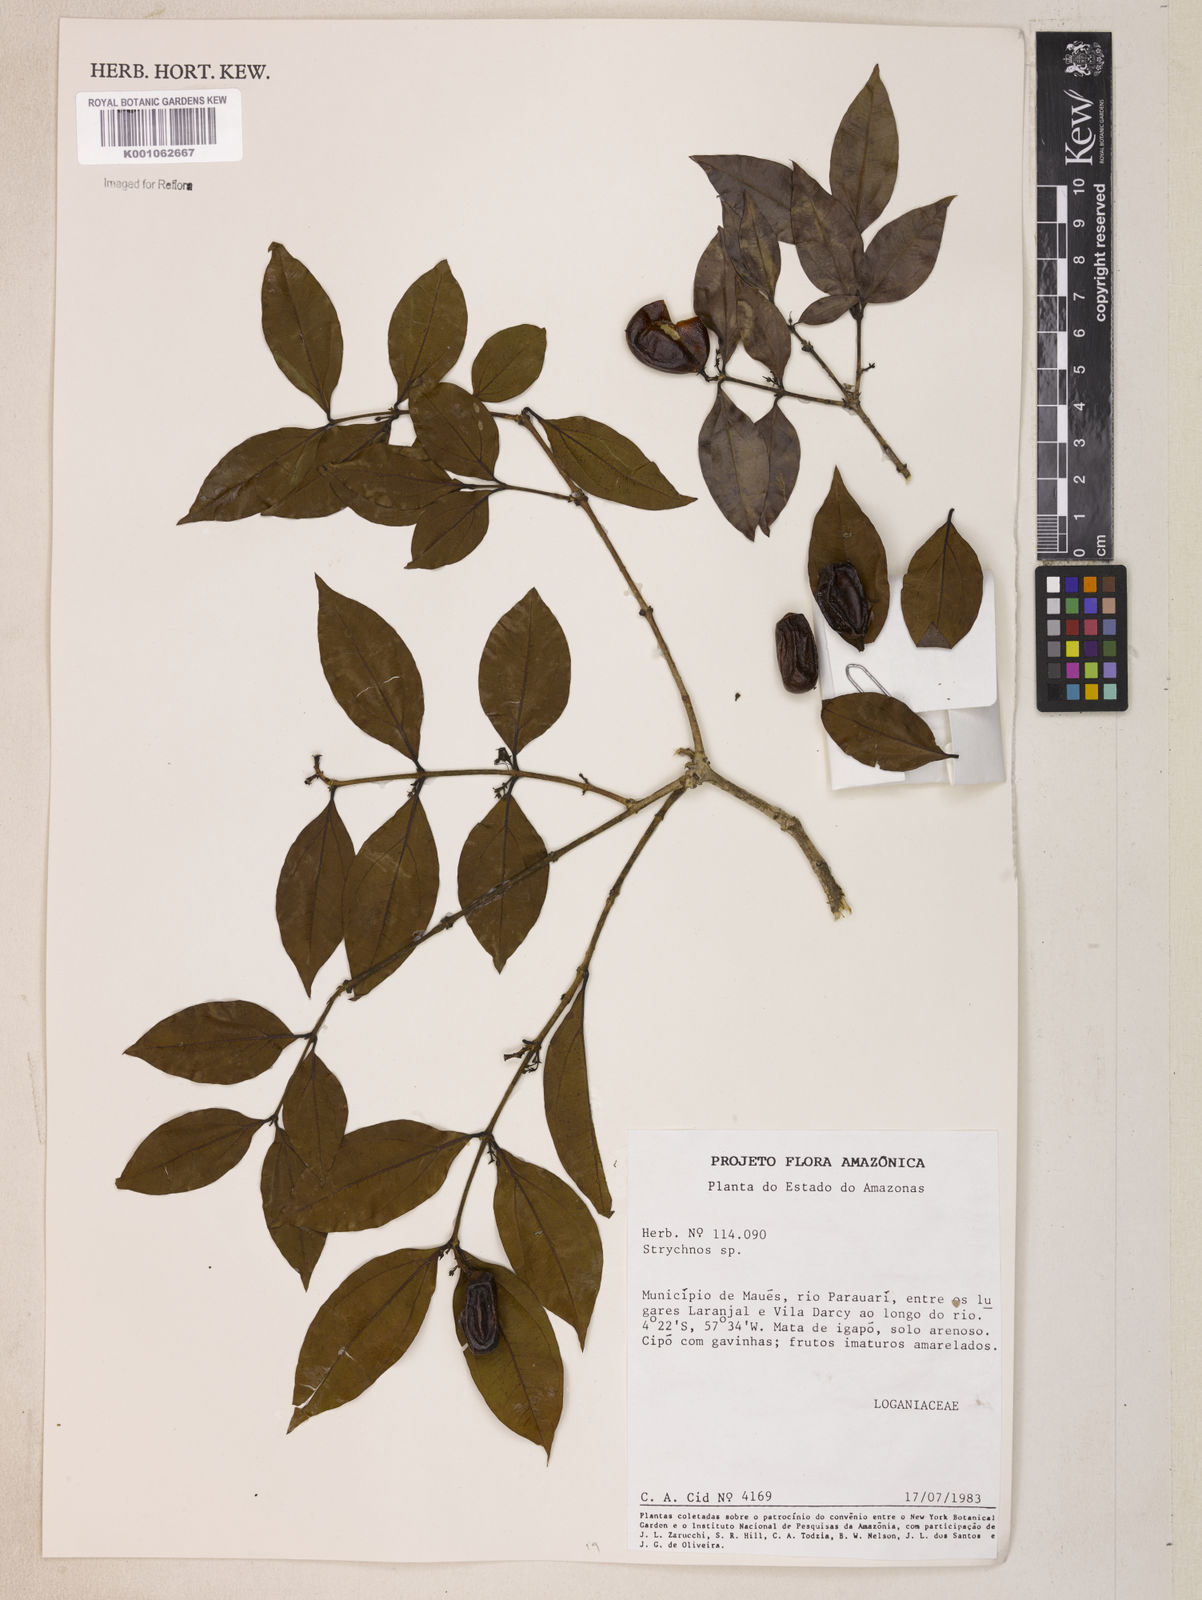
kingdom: Plantae
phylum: Tracheophyta
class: Magnoliopsida
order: Gentianales
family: Loganiaceae
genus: Strychnos
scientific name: Strychnos guianensis
